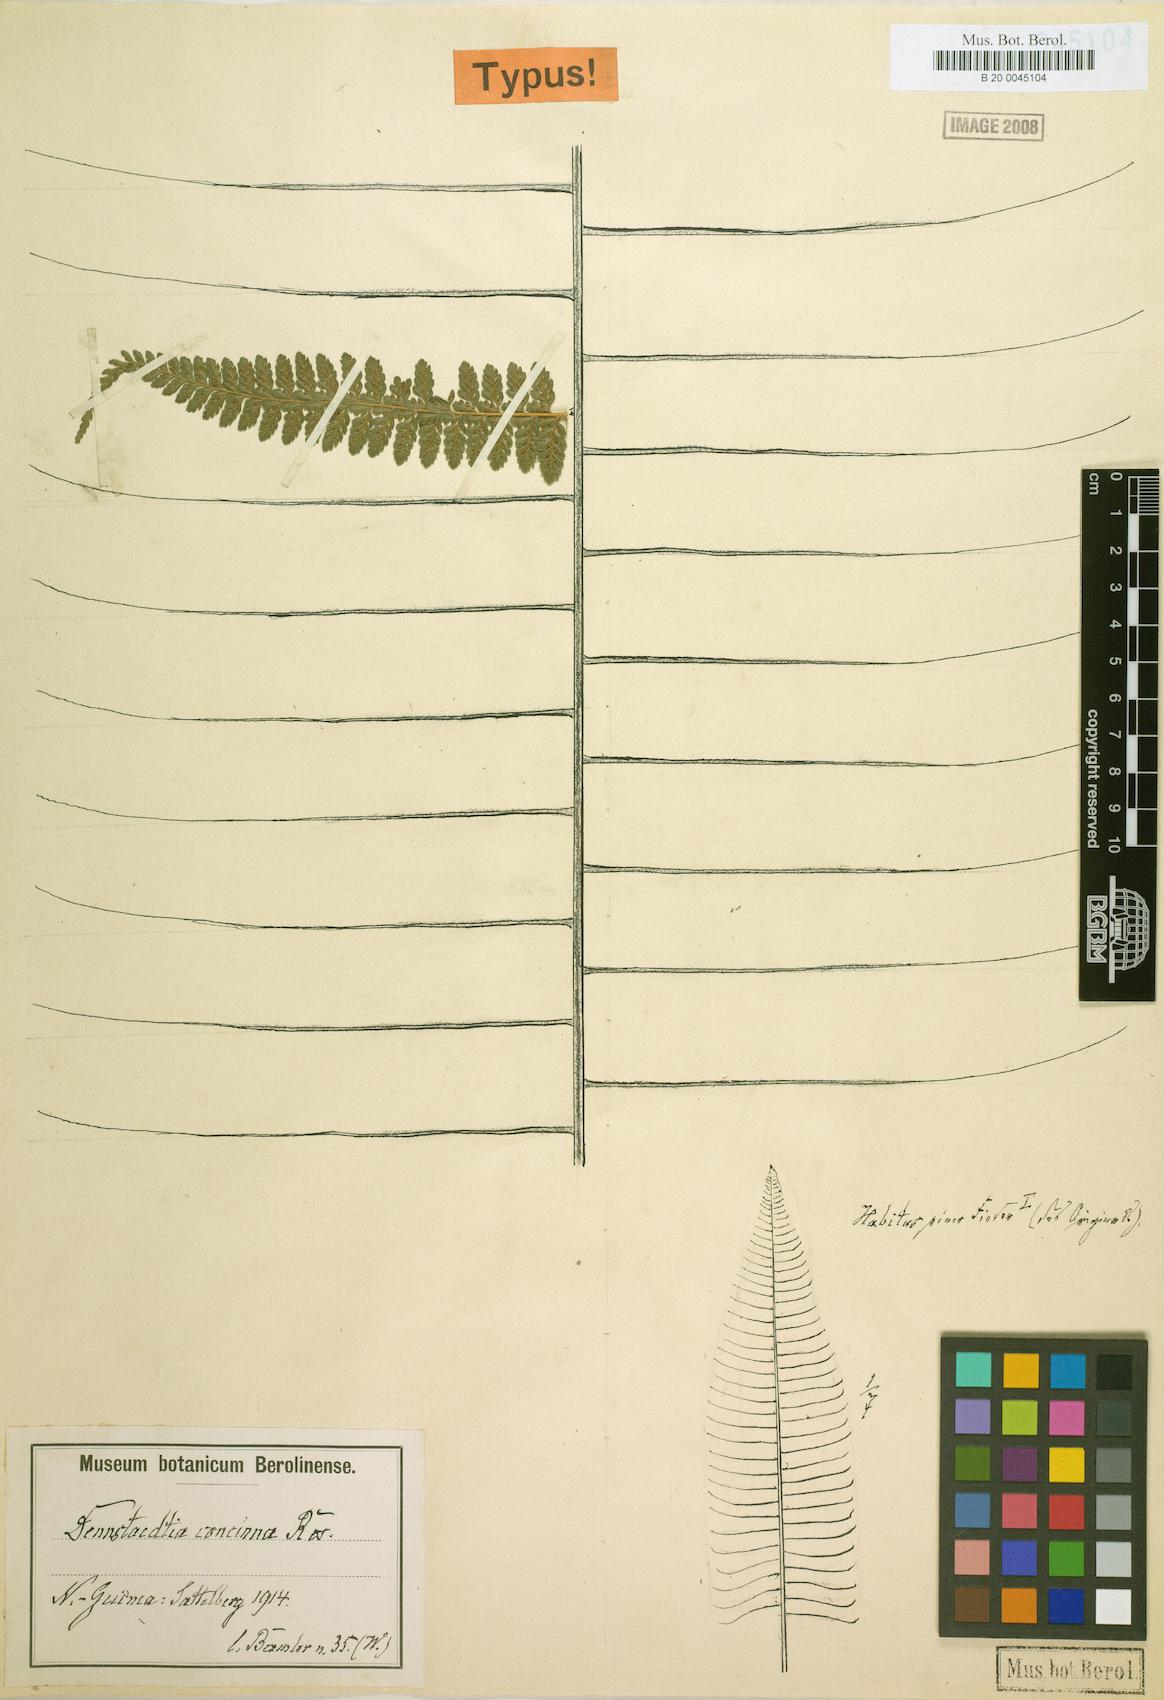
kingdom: Plantae
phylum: Tracheophyta
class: Polypodiopsida
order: Polypodiales
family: Dennstaedtiaceae
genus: Microlepia
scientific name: Microlepia concinna
